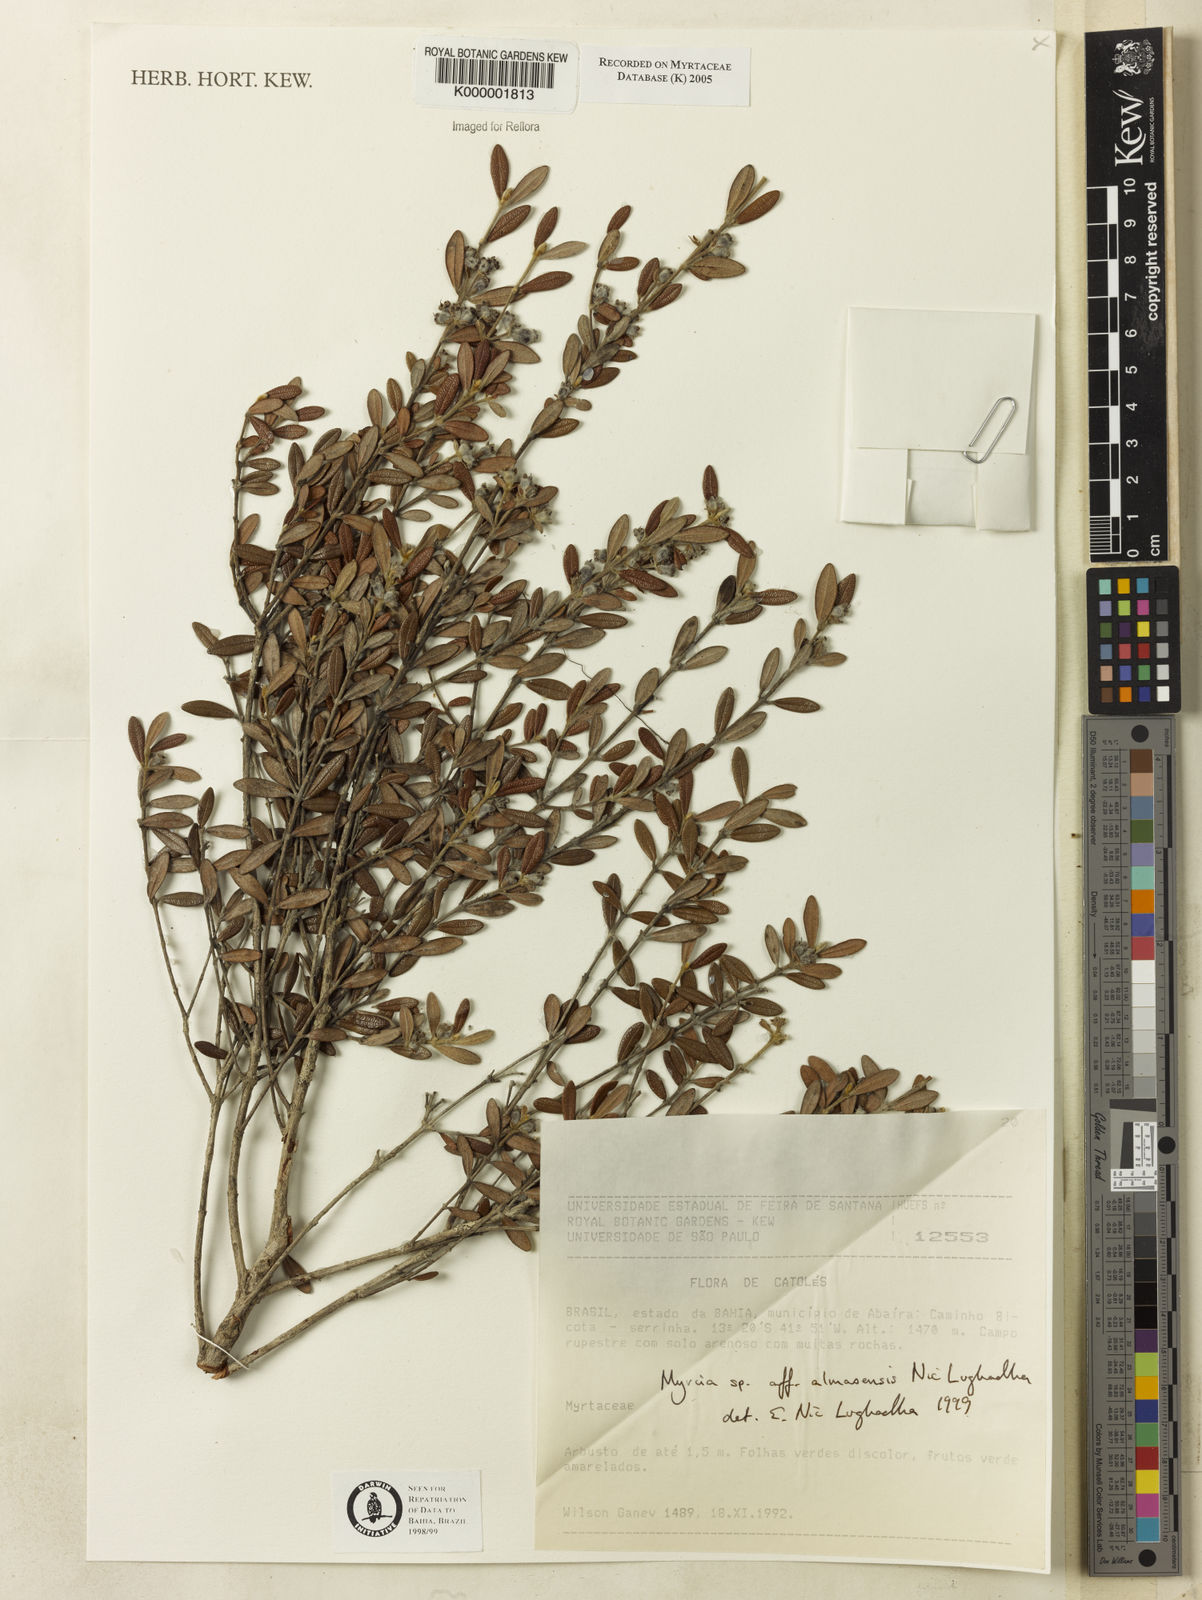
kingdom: Plantae
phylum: Tracheophyta
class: Magnoliopsida
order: Myrtales
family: Myrtaceae
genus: Myrcia
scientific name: Myrcia almasensis
